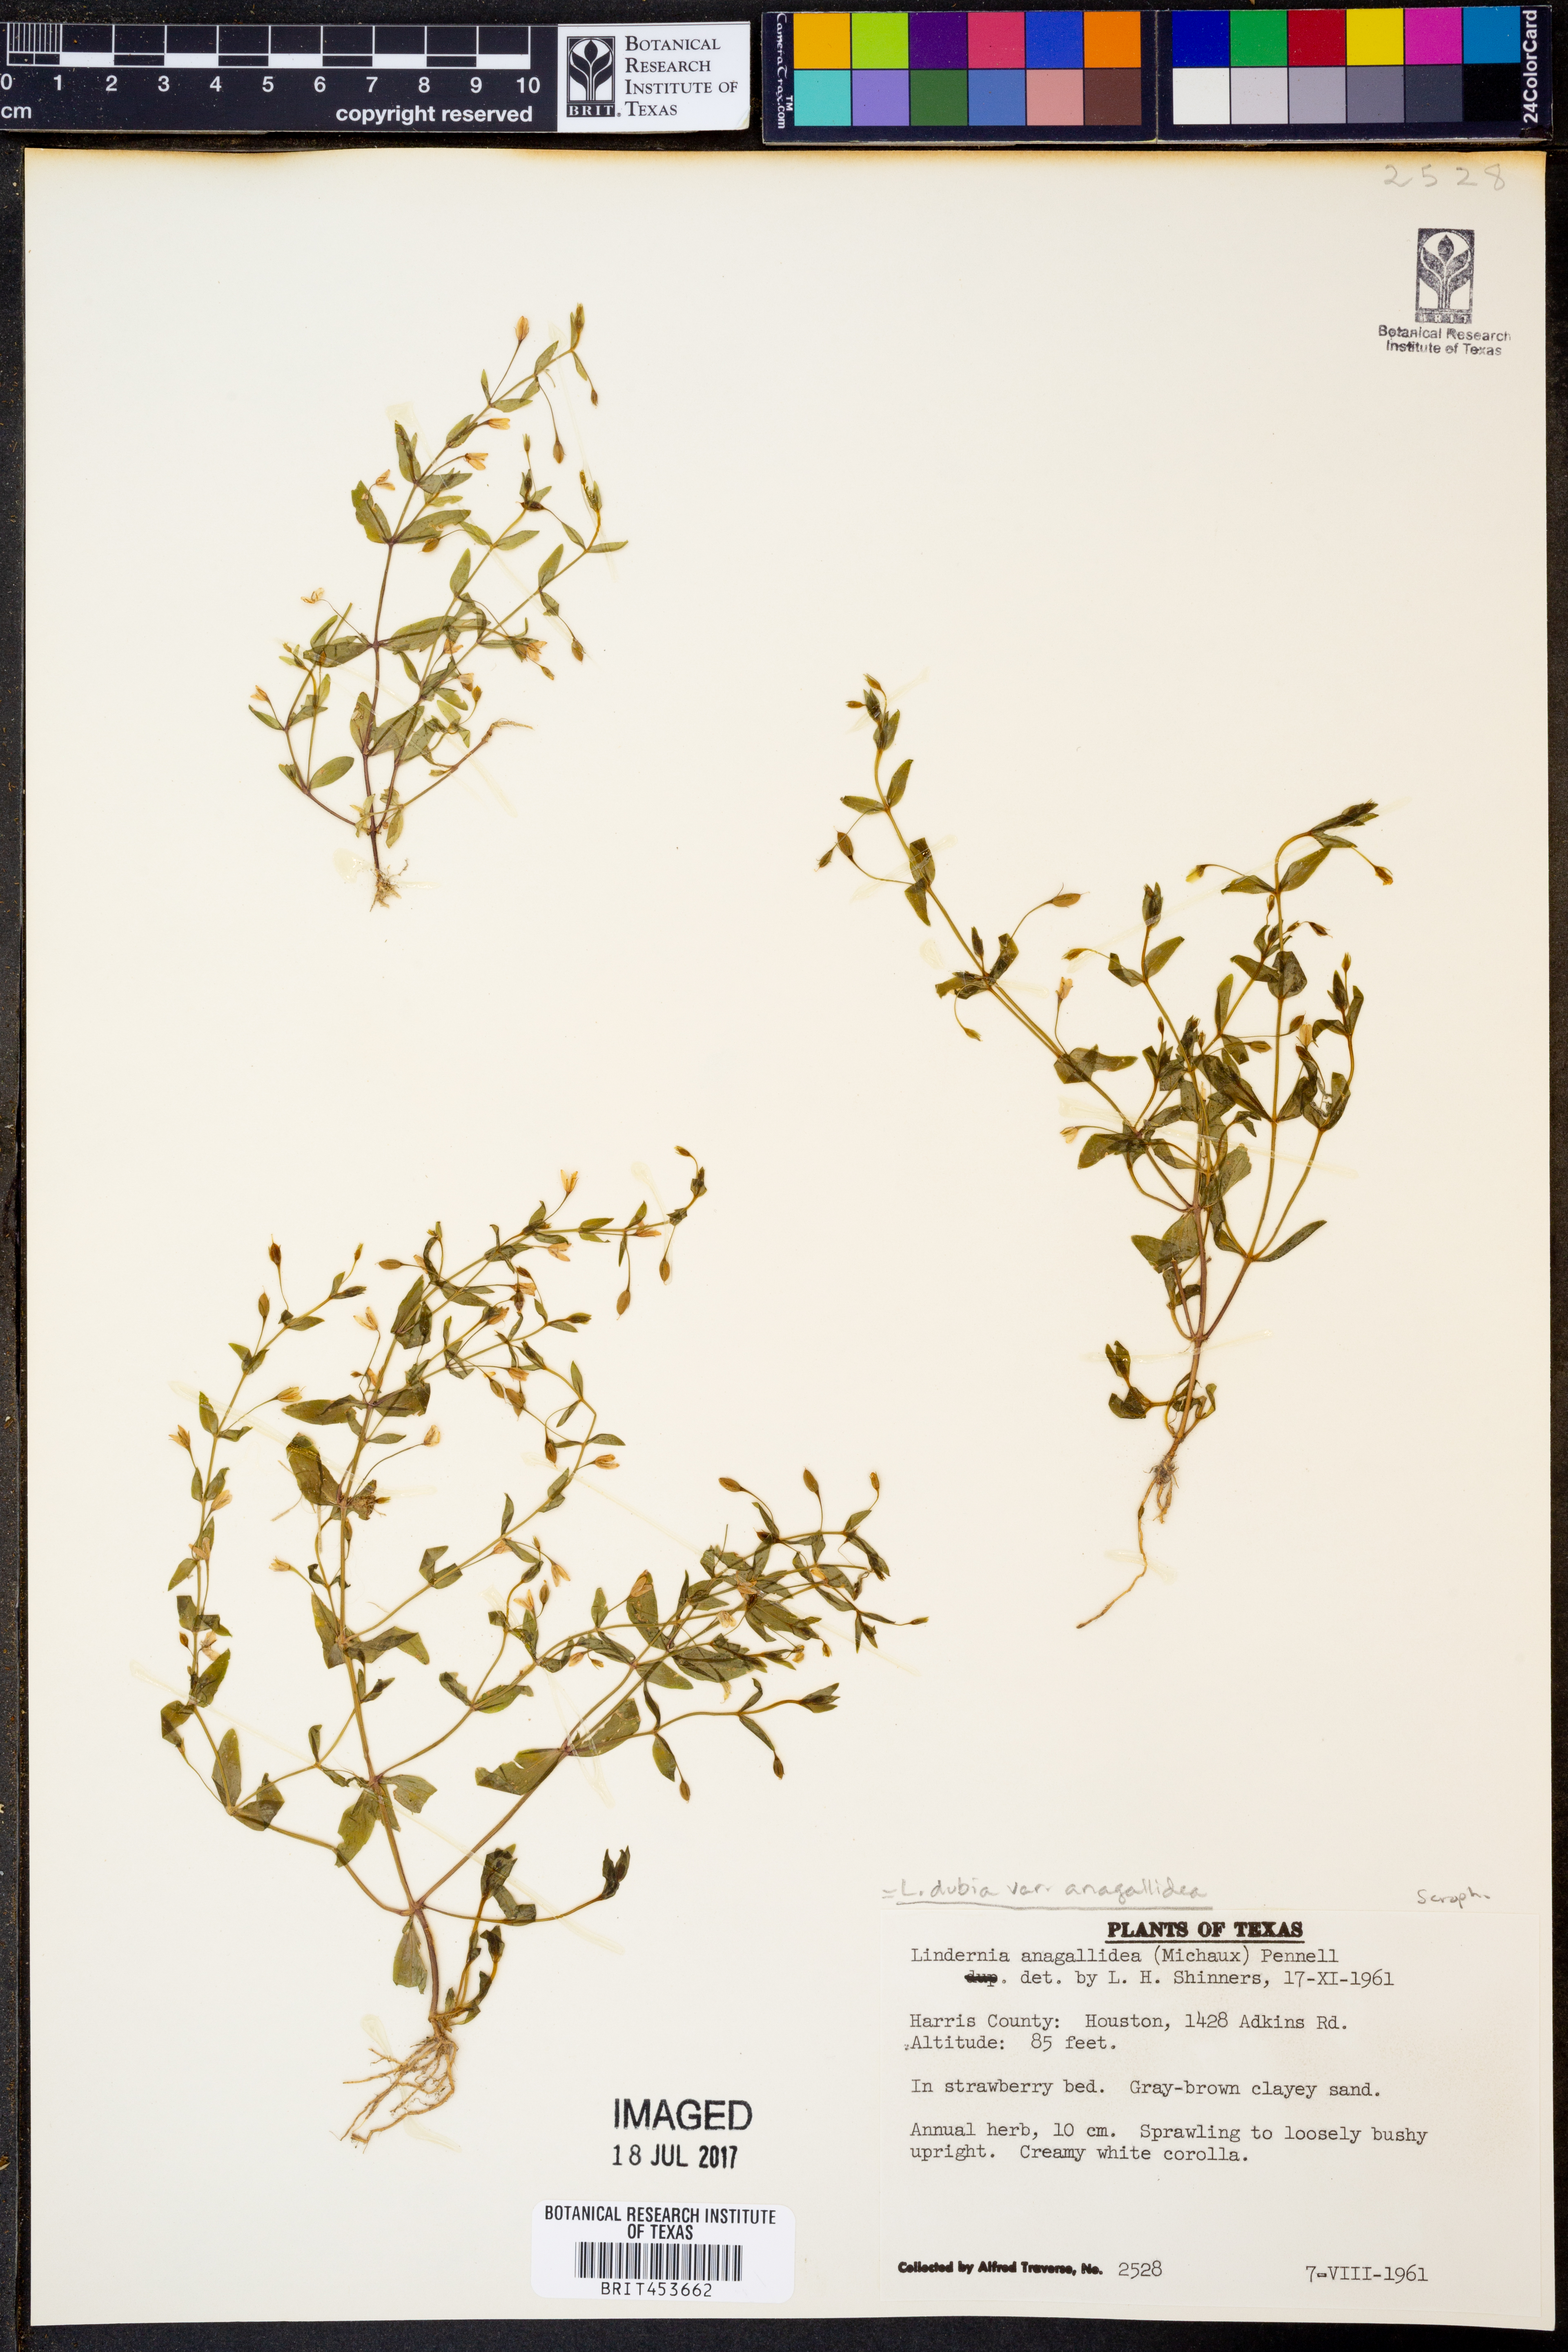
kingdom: Plantae
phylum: Tracheophyta
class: Magnoliopsida
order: Lamiales
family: Linderniaceae
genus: Lindernia
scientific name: Lindernia dubia
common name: Annual false pimpernel
